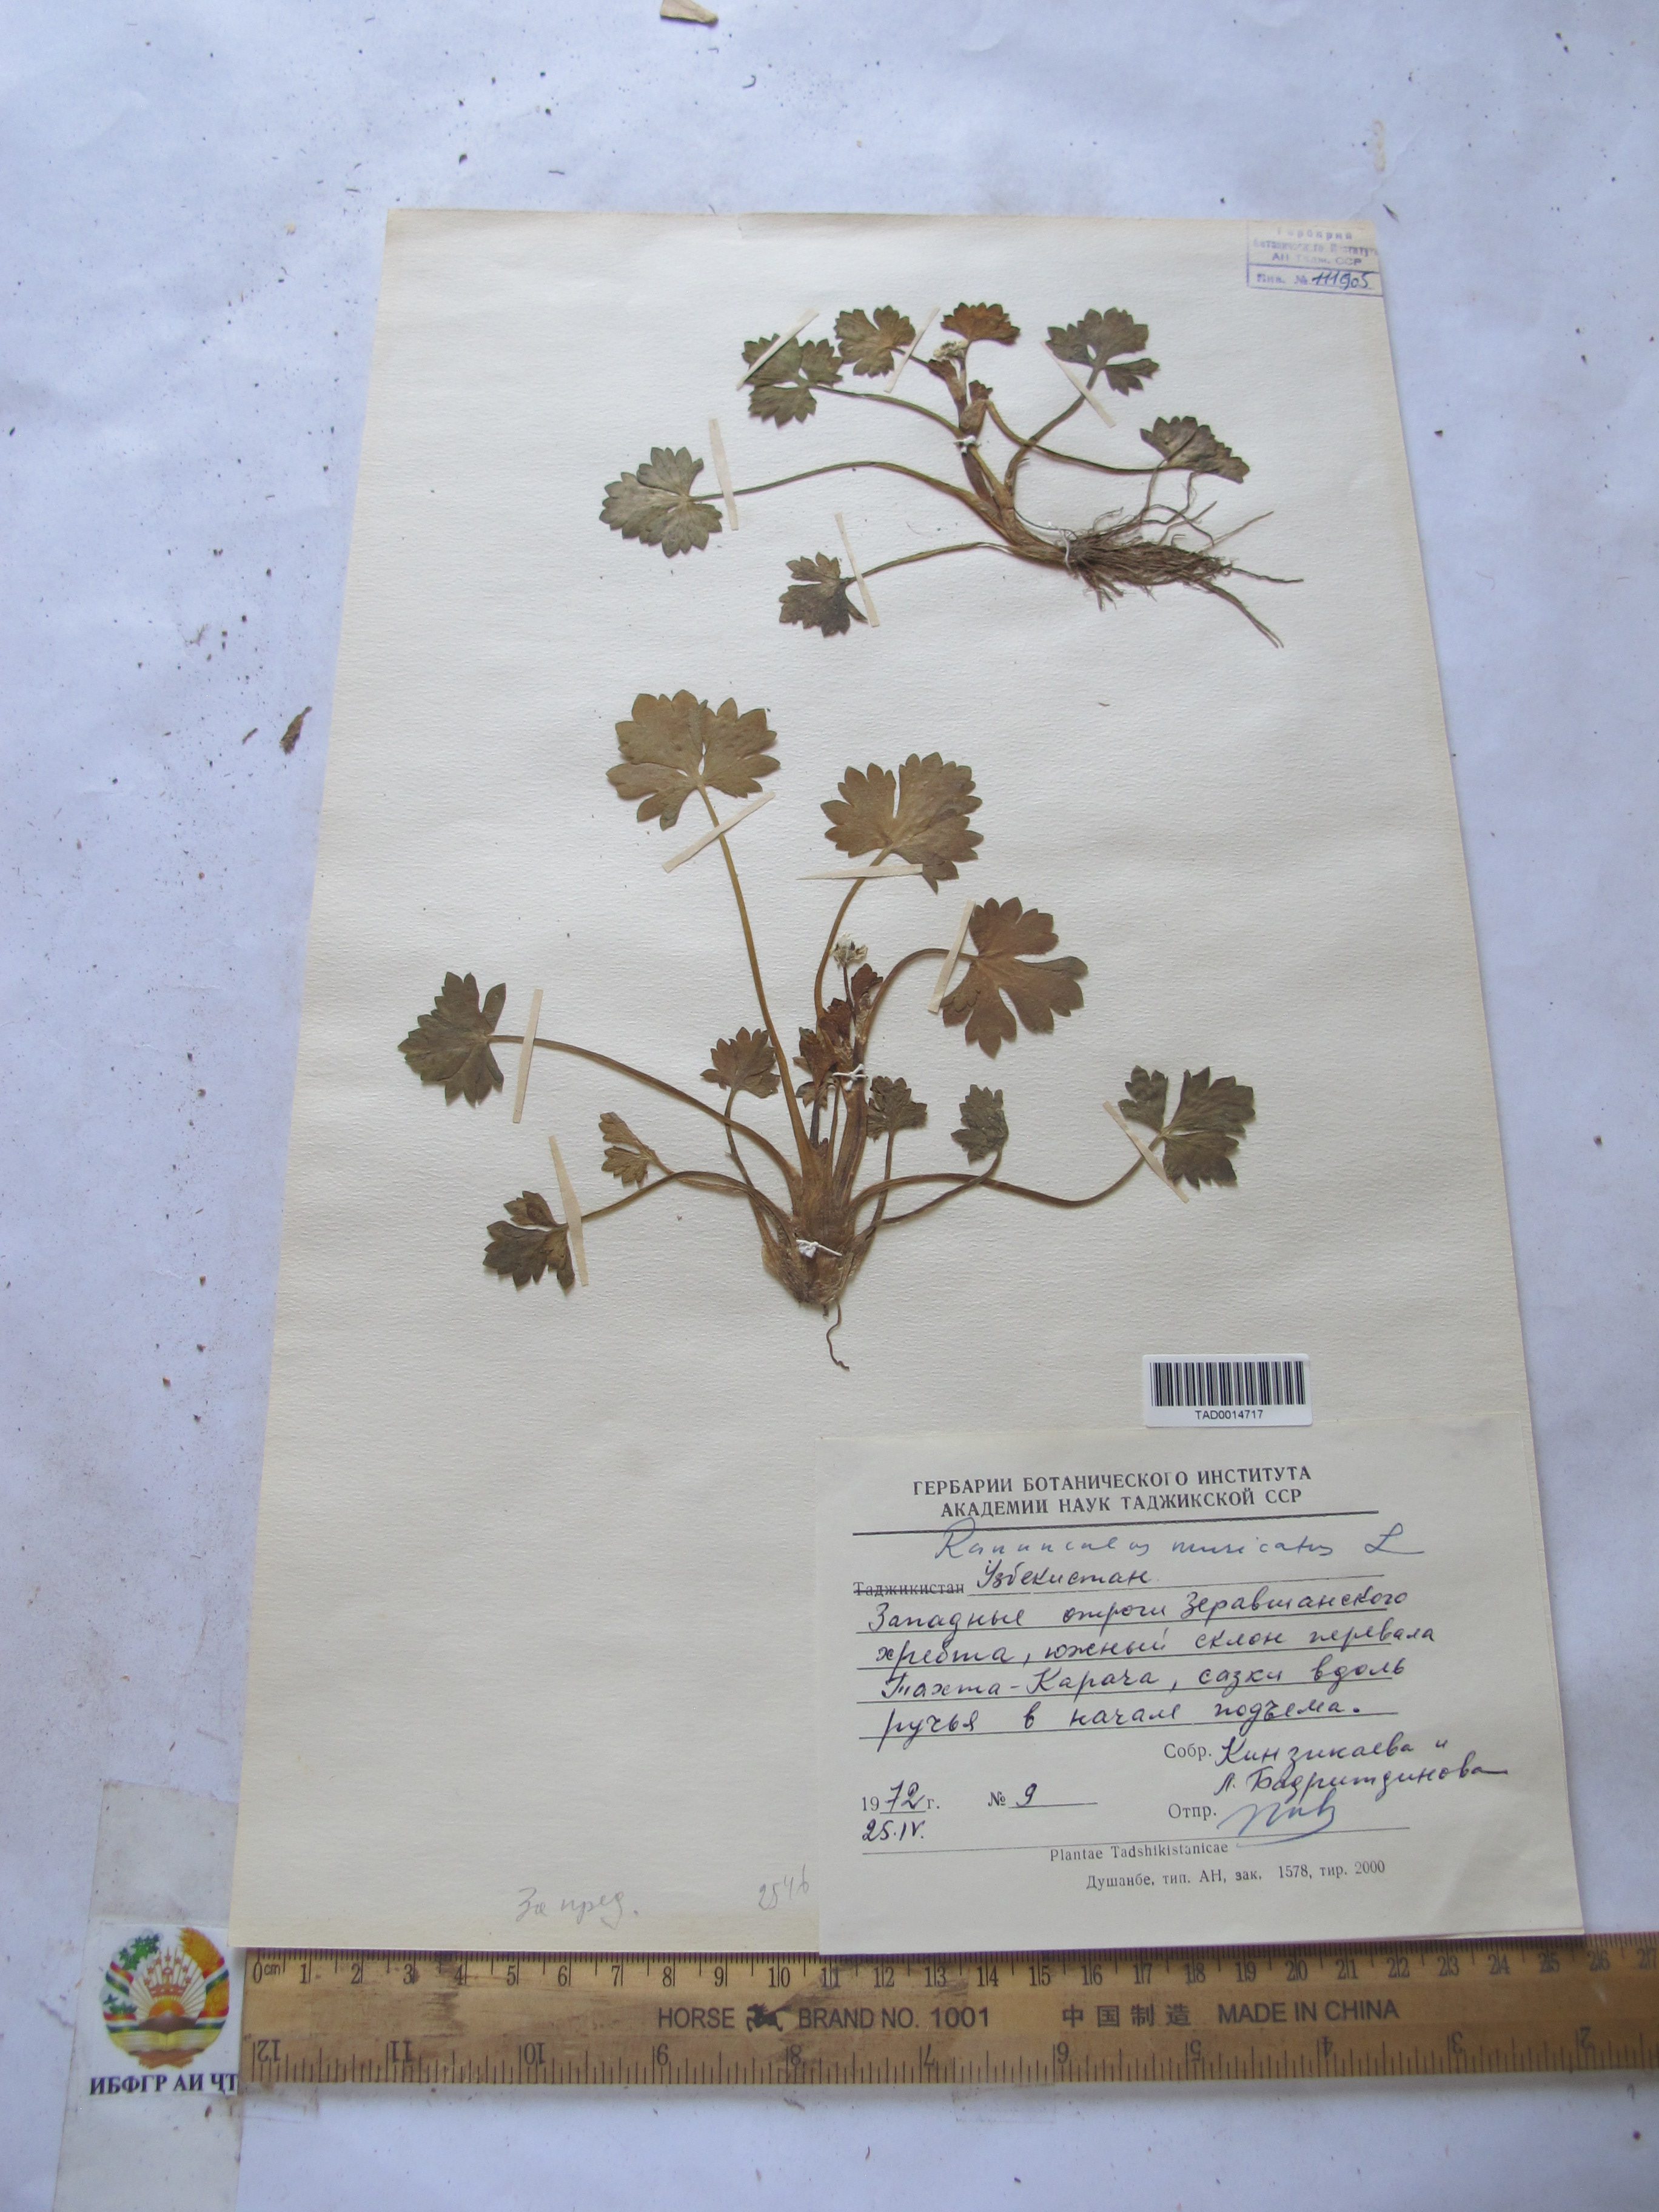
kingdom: Plantae
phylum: Tracheophyta
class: Magnoliopsida
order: Ranunculales
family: Ranunculaceae
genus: Ranunculus
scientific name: Ranunculus muricatus
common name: Rough-fruited buttercup
